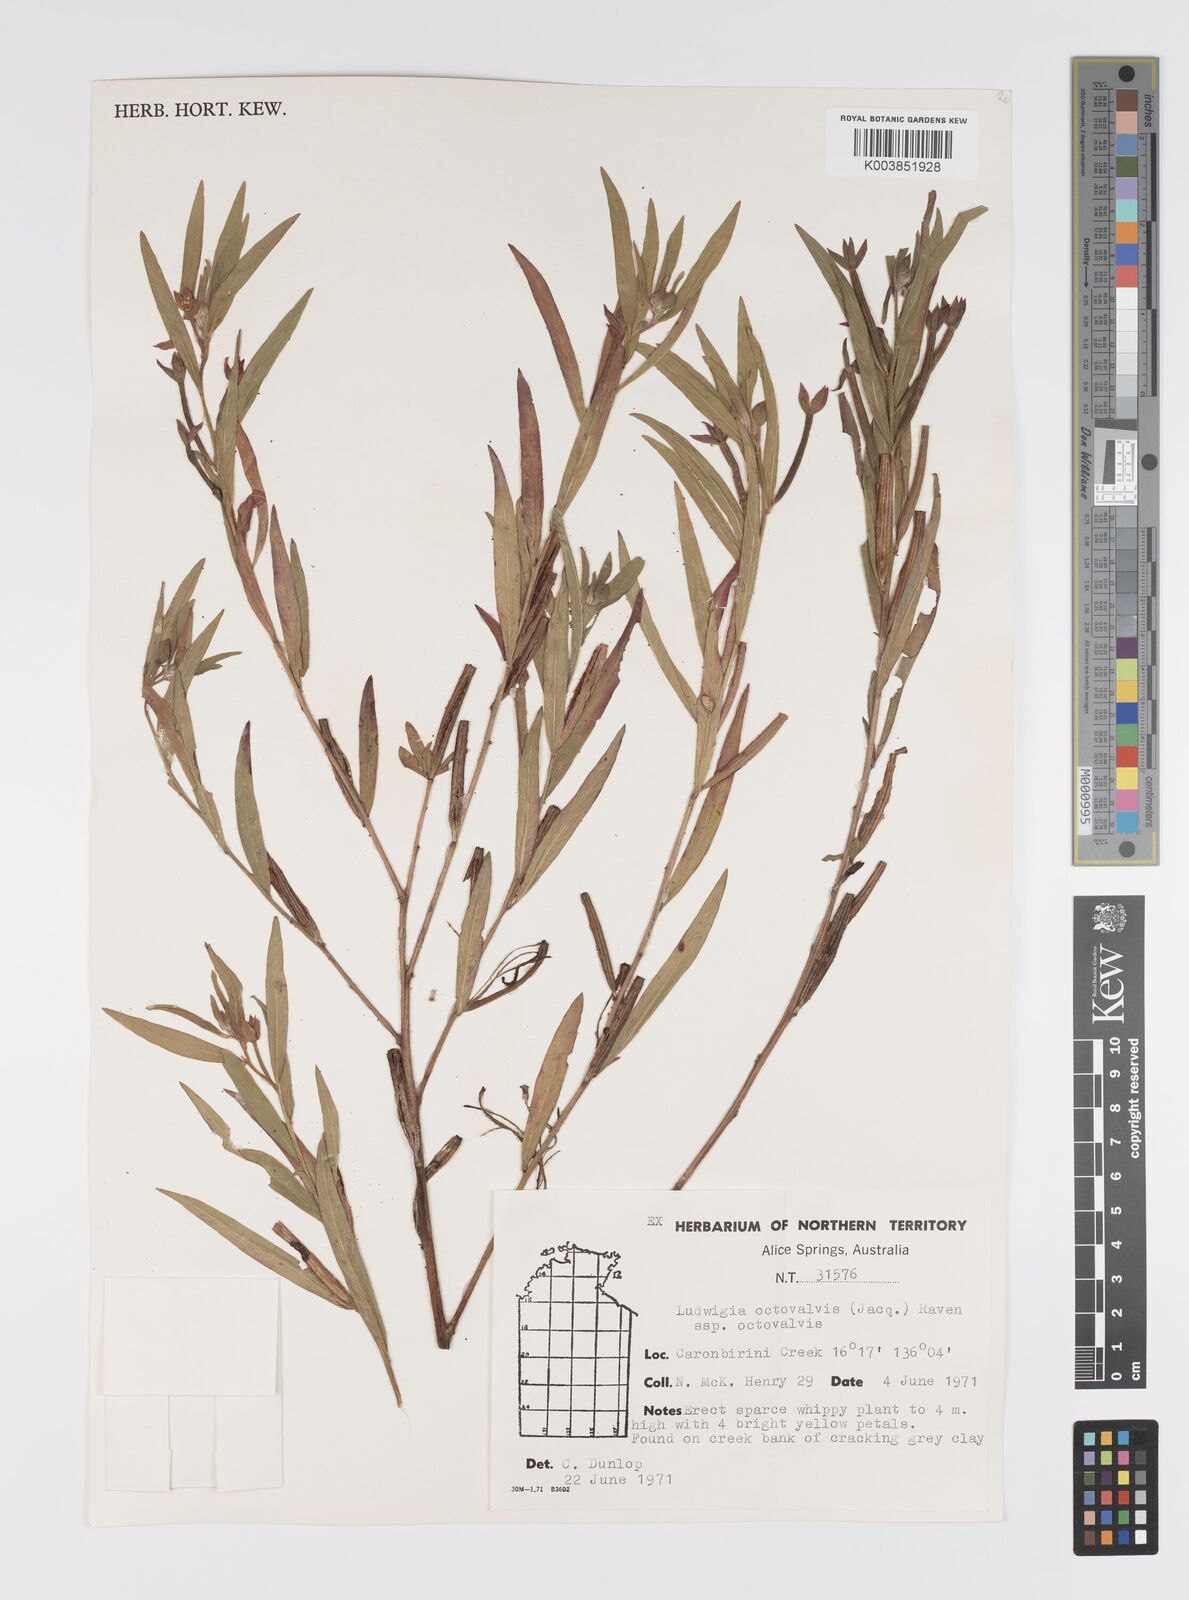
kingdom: Plantae
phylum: Tracheophyta
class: Magnoliopsida
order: Myrtales
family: Onagraceae
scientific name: Onagraceae
